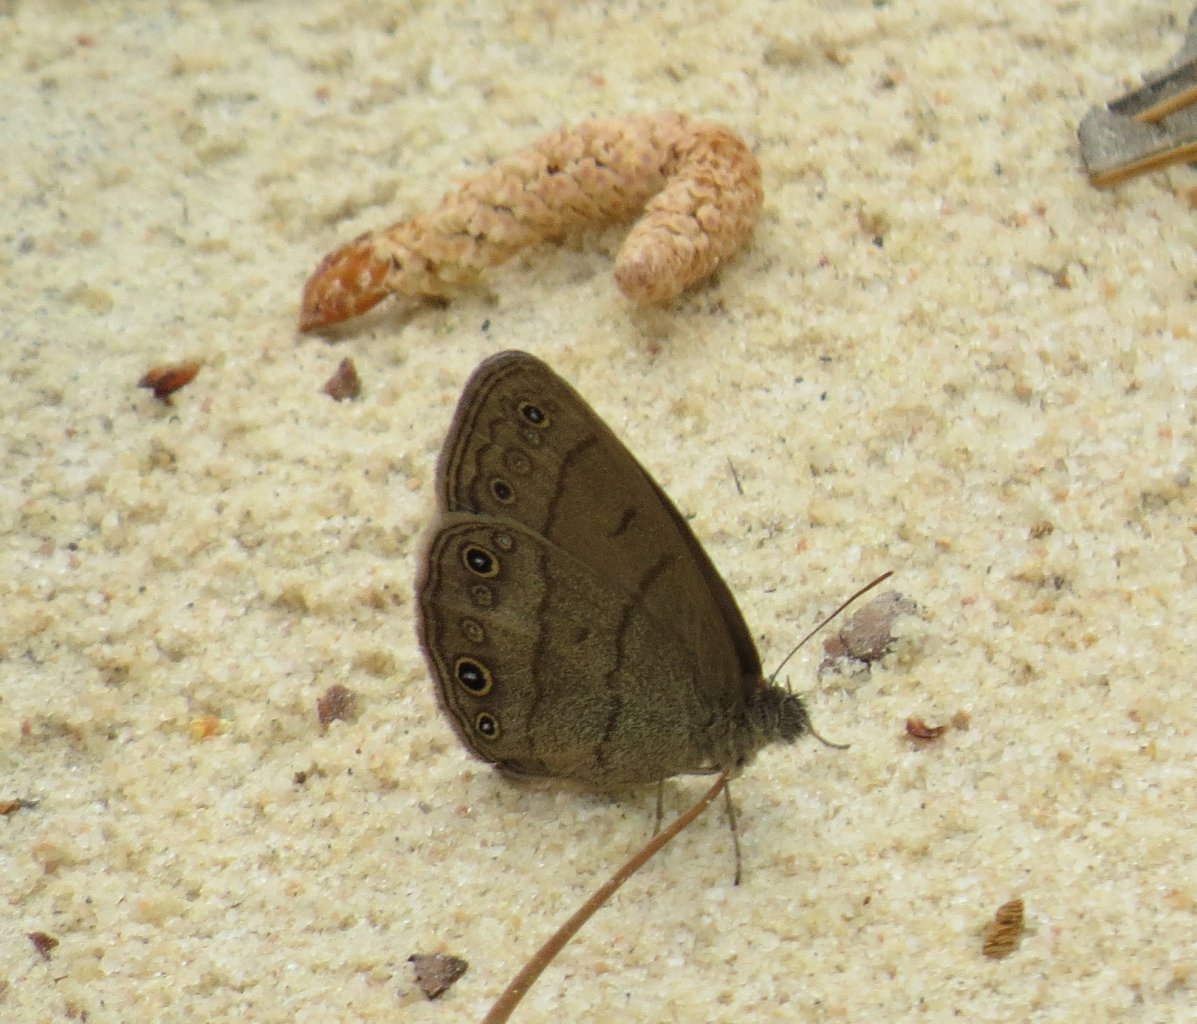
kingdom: Animalia
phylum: Arthropoda
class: Insecta
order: Lepidoptera
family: Nymphalidae
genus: Hermeuptychia
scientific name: Hermeuptychia hermes
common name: Carolina Satyr
